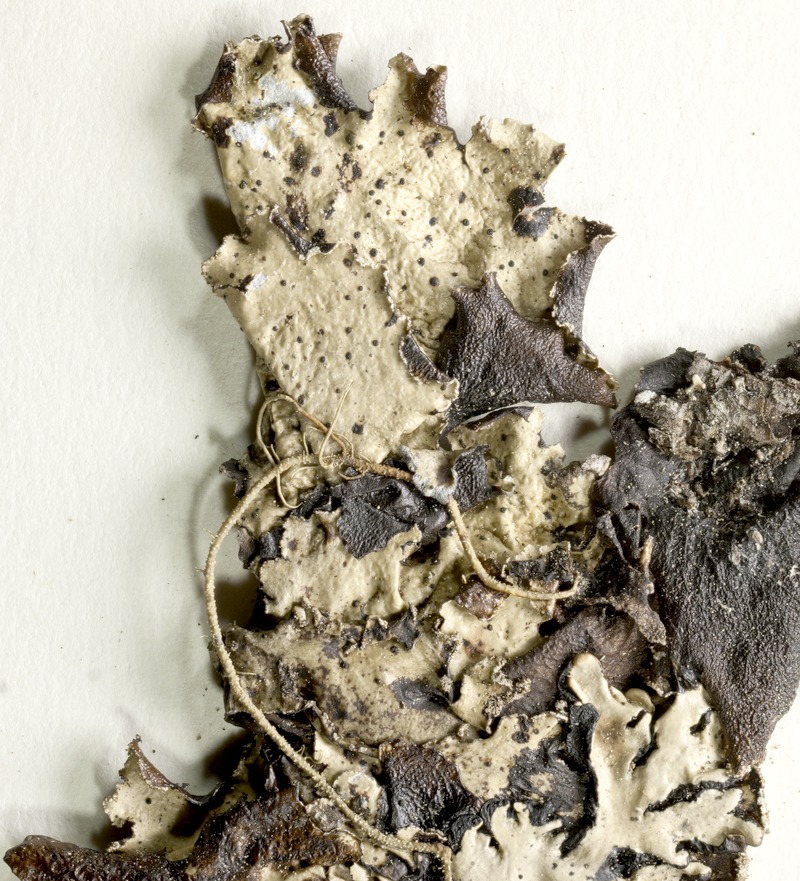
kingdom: Fungi
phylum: Ascomycota
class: Lecanoromycetes
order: Lecanorales
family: Parmeliaceae
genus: Platismatia
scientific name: Platismatia glauca
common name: Varied rag lichen
